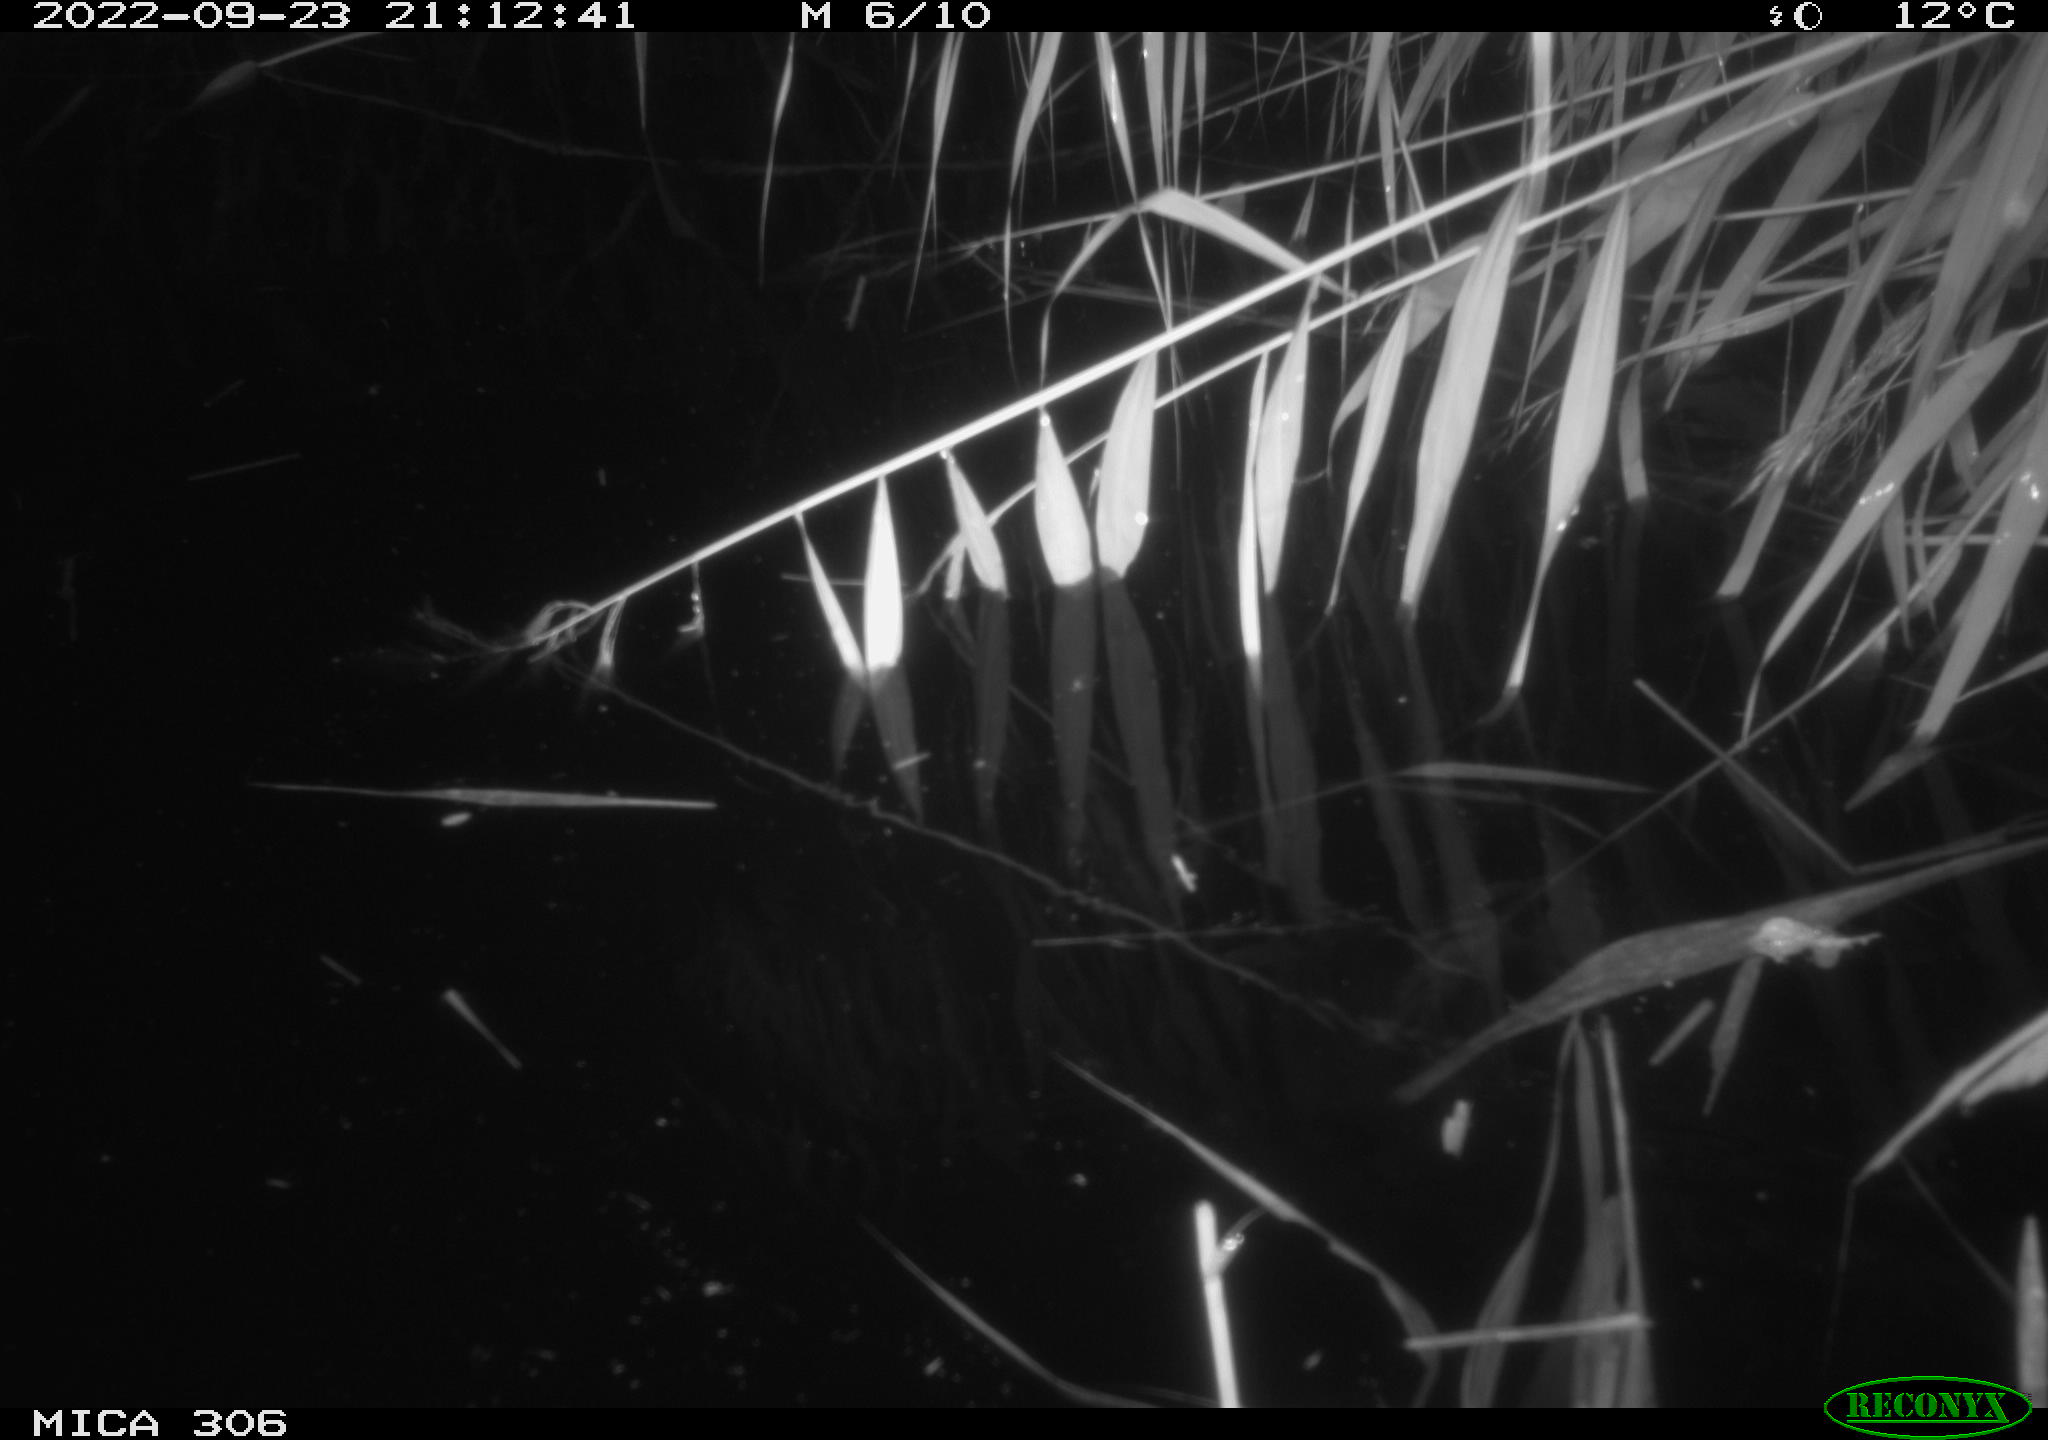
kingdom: Animalia
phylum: Chordata
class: Mammalia
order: Rodentia
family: Muridae
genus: Rattus
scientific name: Rattus norvegicus
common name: Brown rat
